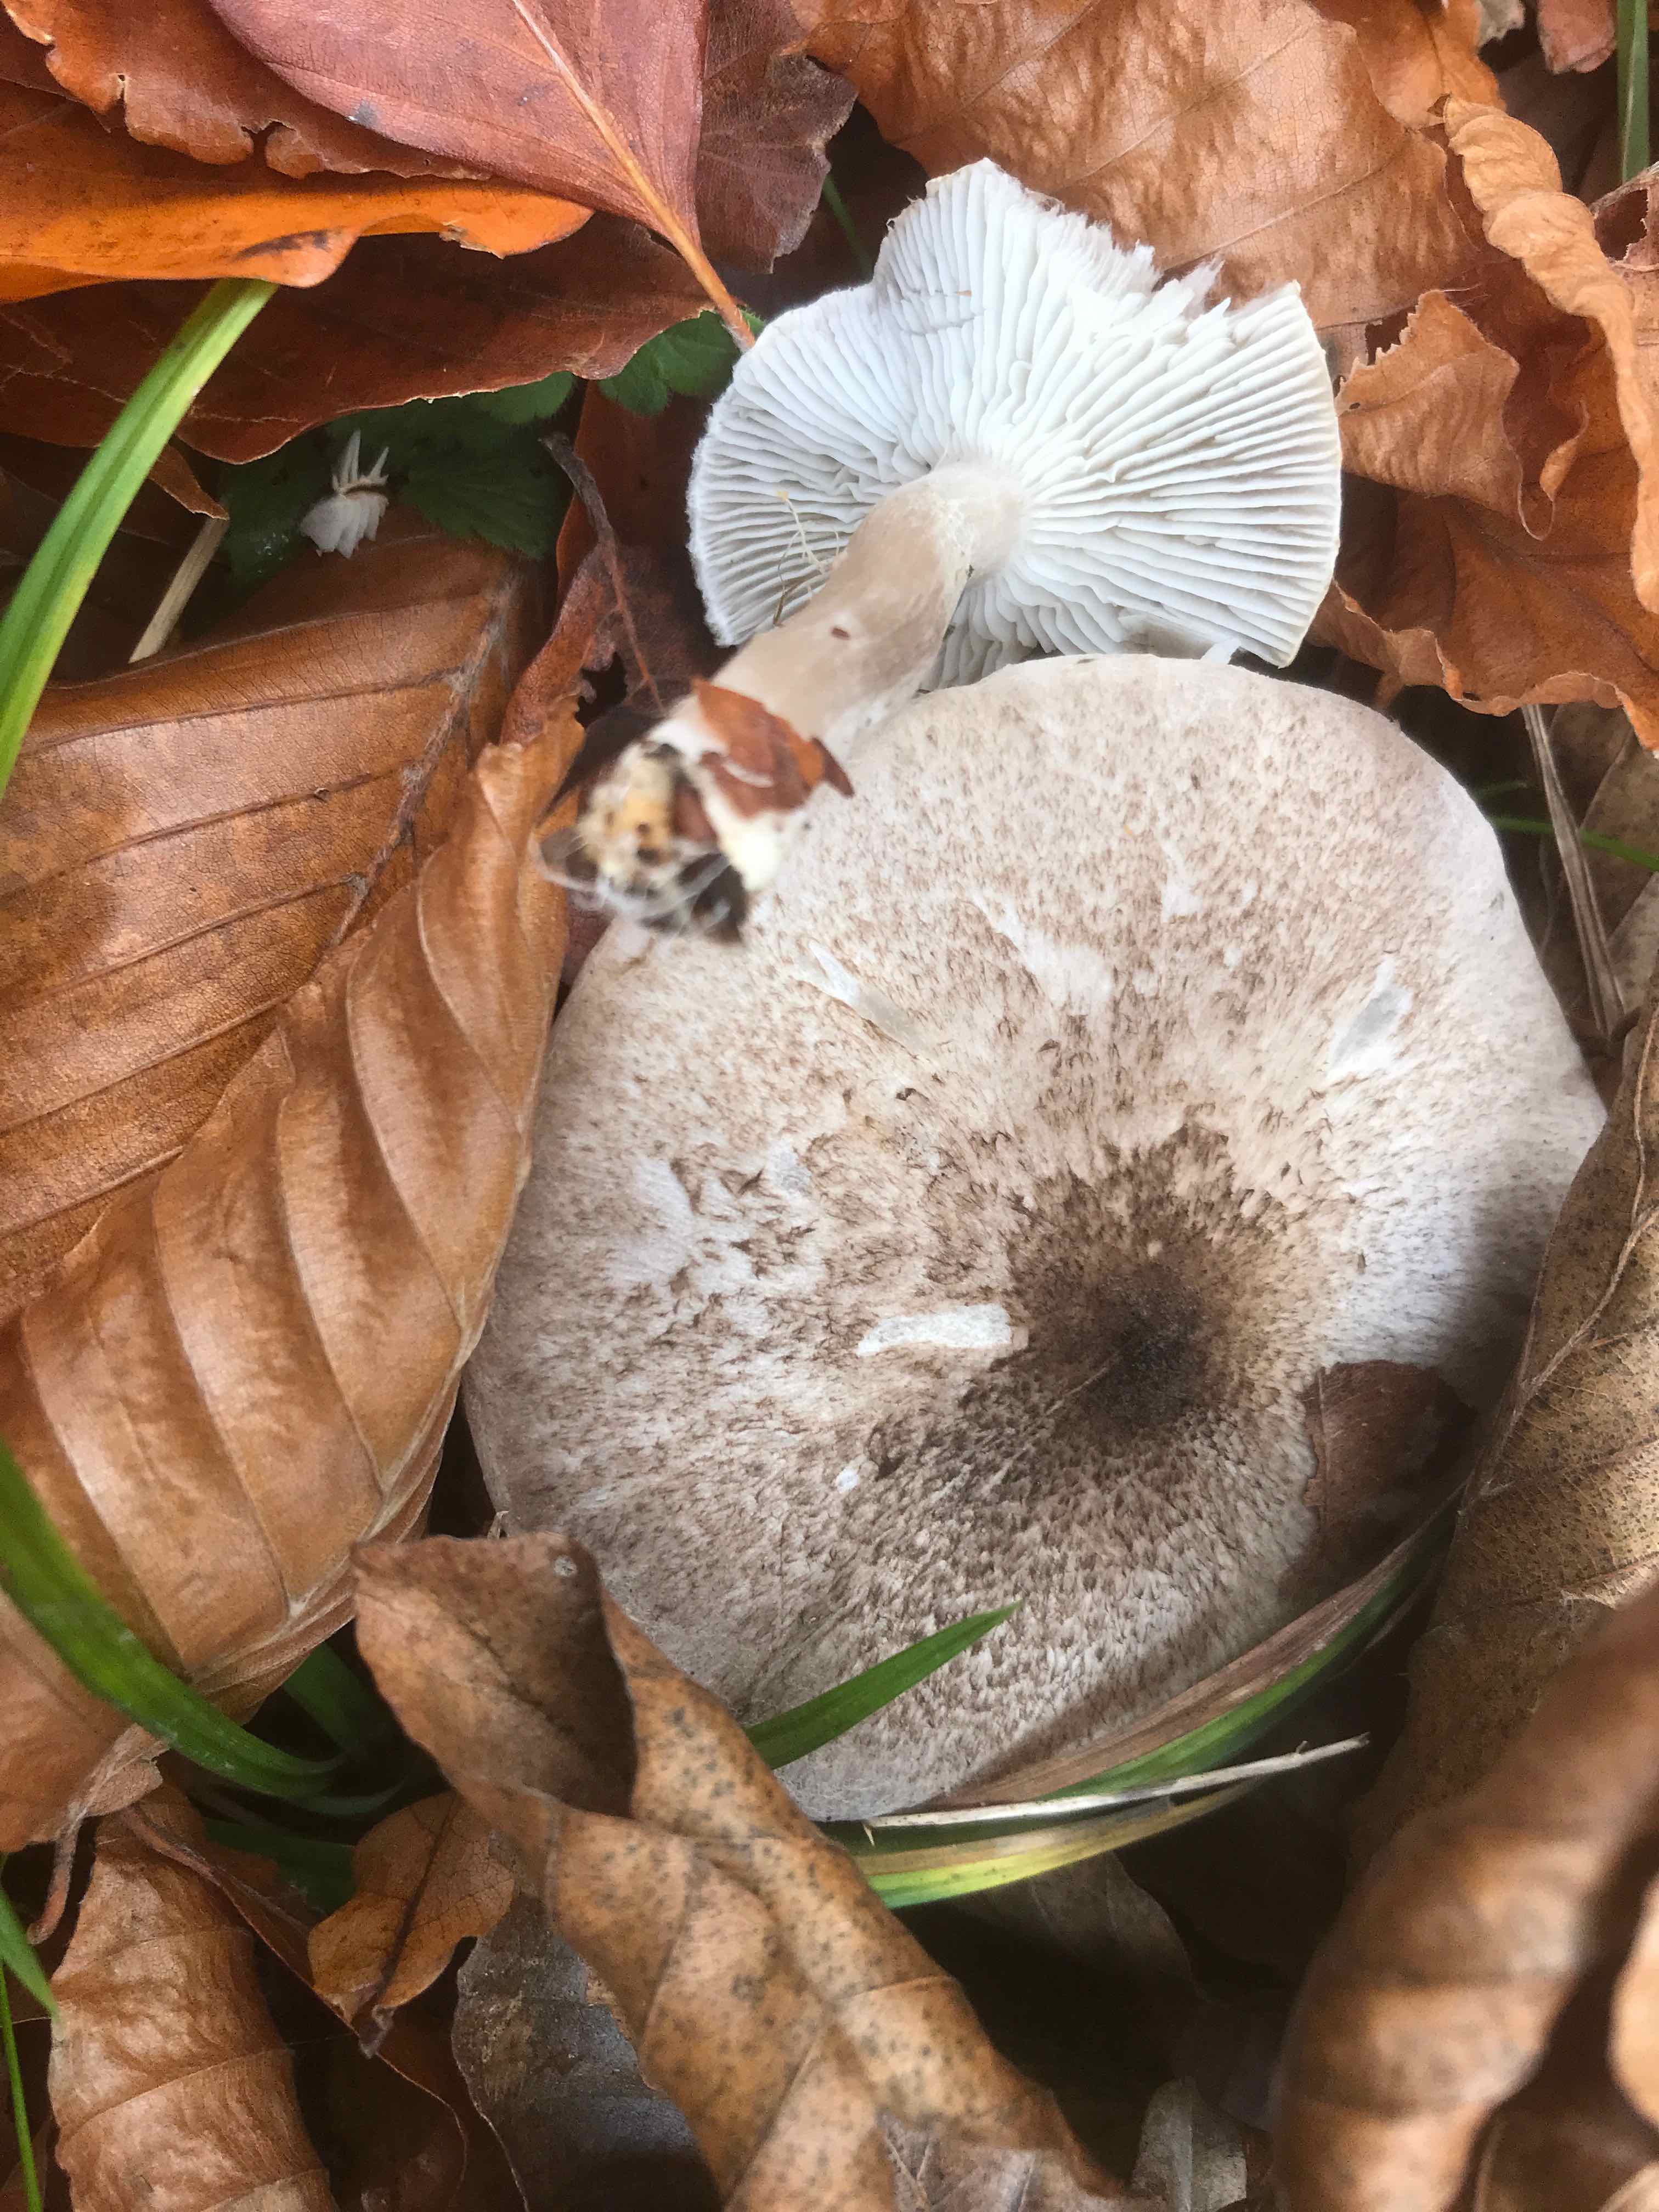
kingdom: Fungi
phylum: Basidiomycota
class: Agaricomycetes
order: Agaricales
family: Tricholomataceae
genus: Tricholoma
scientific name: Tricholoma scalpturatum
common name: gulplettet ridderhat
